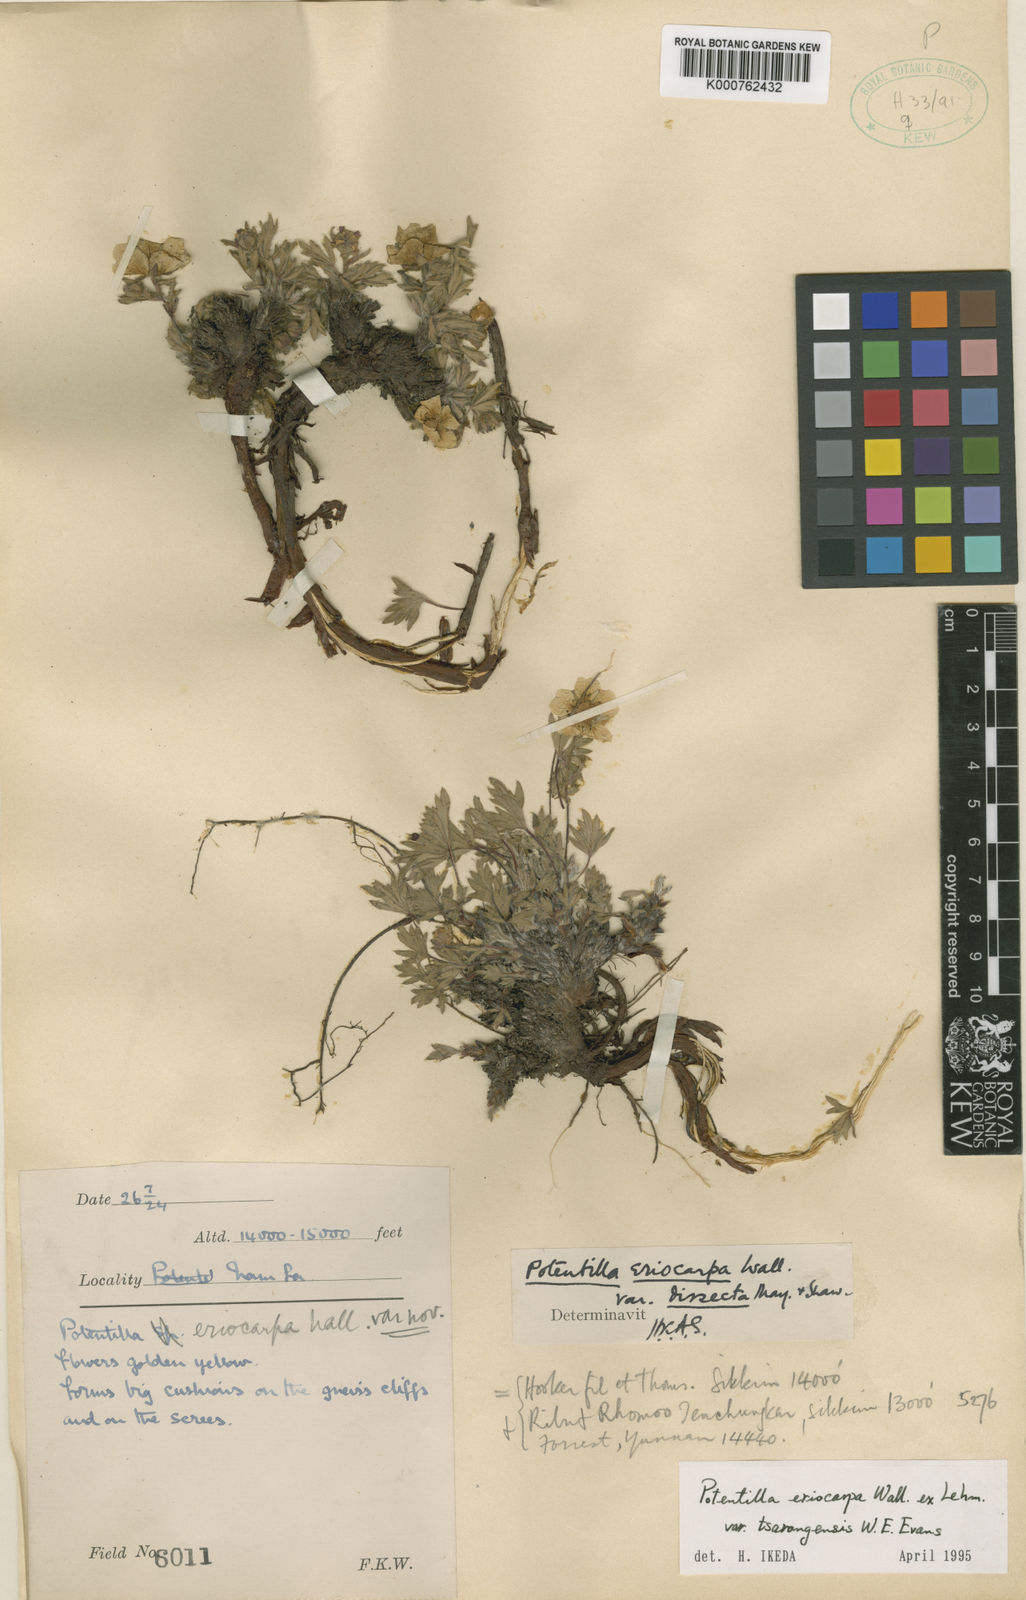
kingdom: Plantae
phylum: Tracheophyta
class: Magnoliopsida
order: Rosales
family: Rosaceae
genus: Potentilla
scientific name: Potentilla
